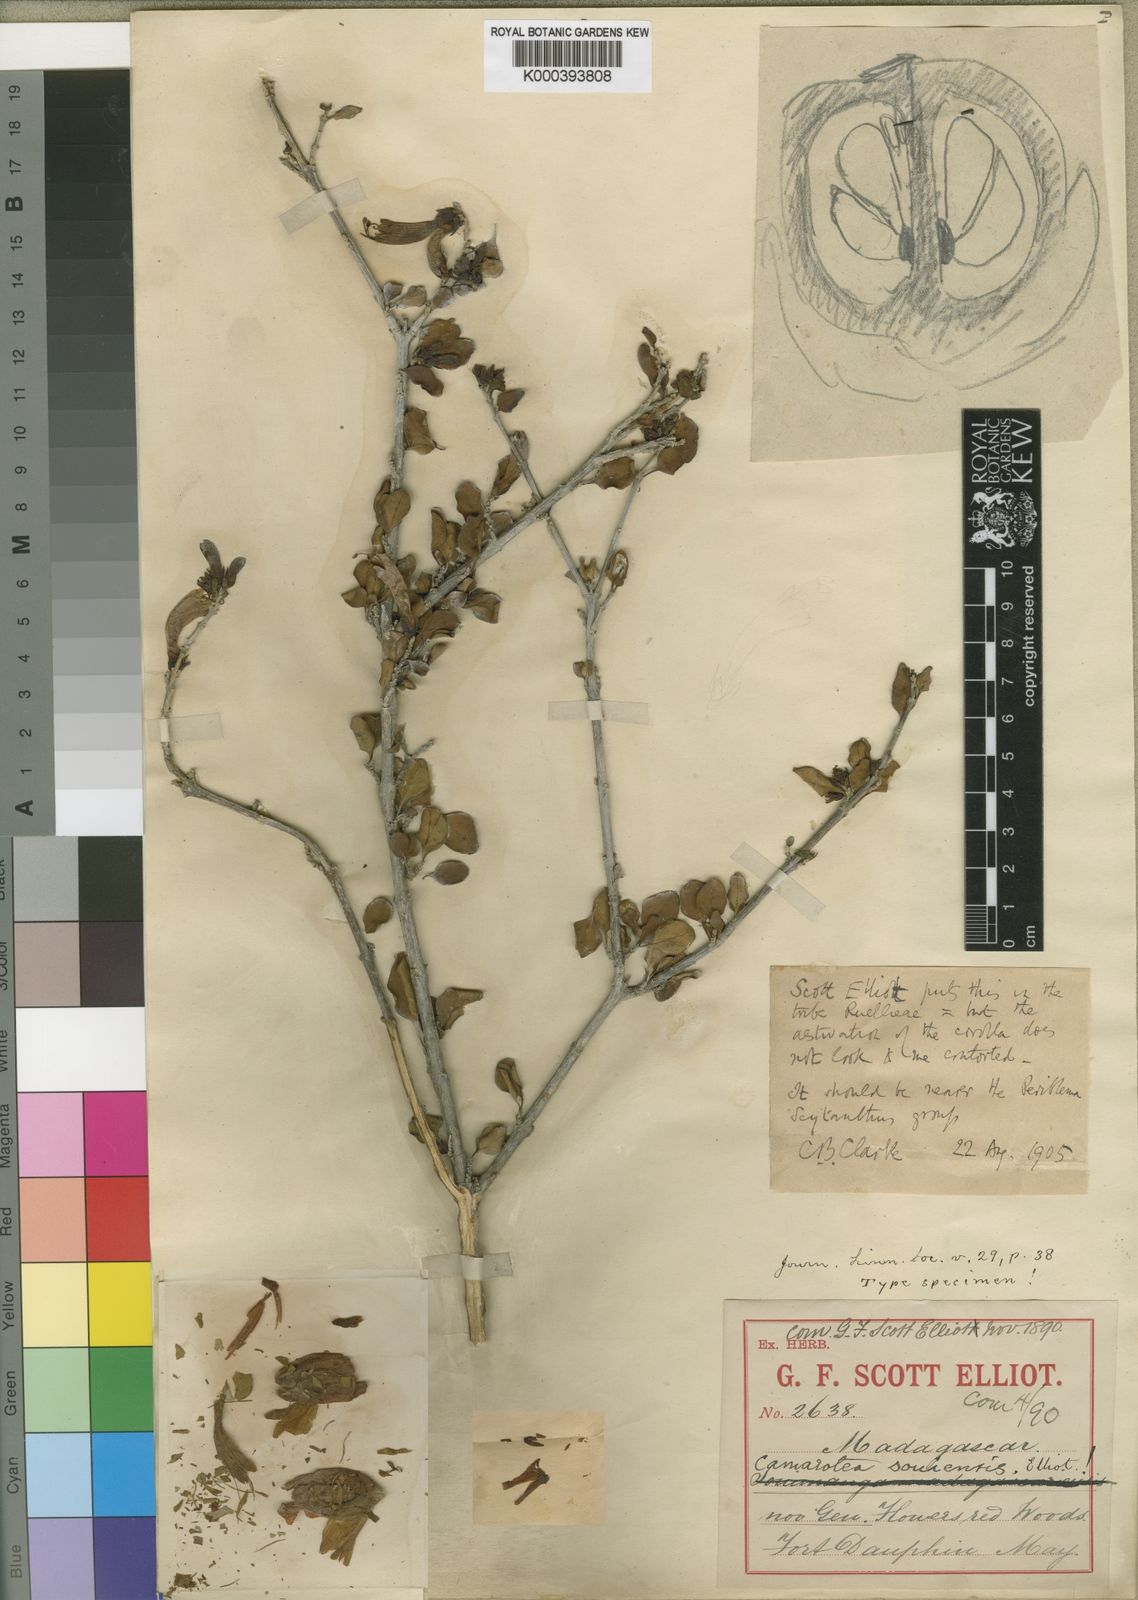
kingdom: Plantae
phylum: Tracheophyta
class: Magnoliopsida
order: Lamiales
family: Acanthaceae
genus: Camarotea
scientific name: Camarotea souiensis
